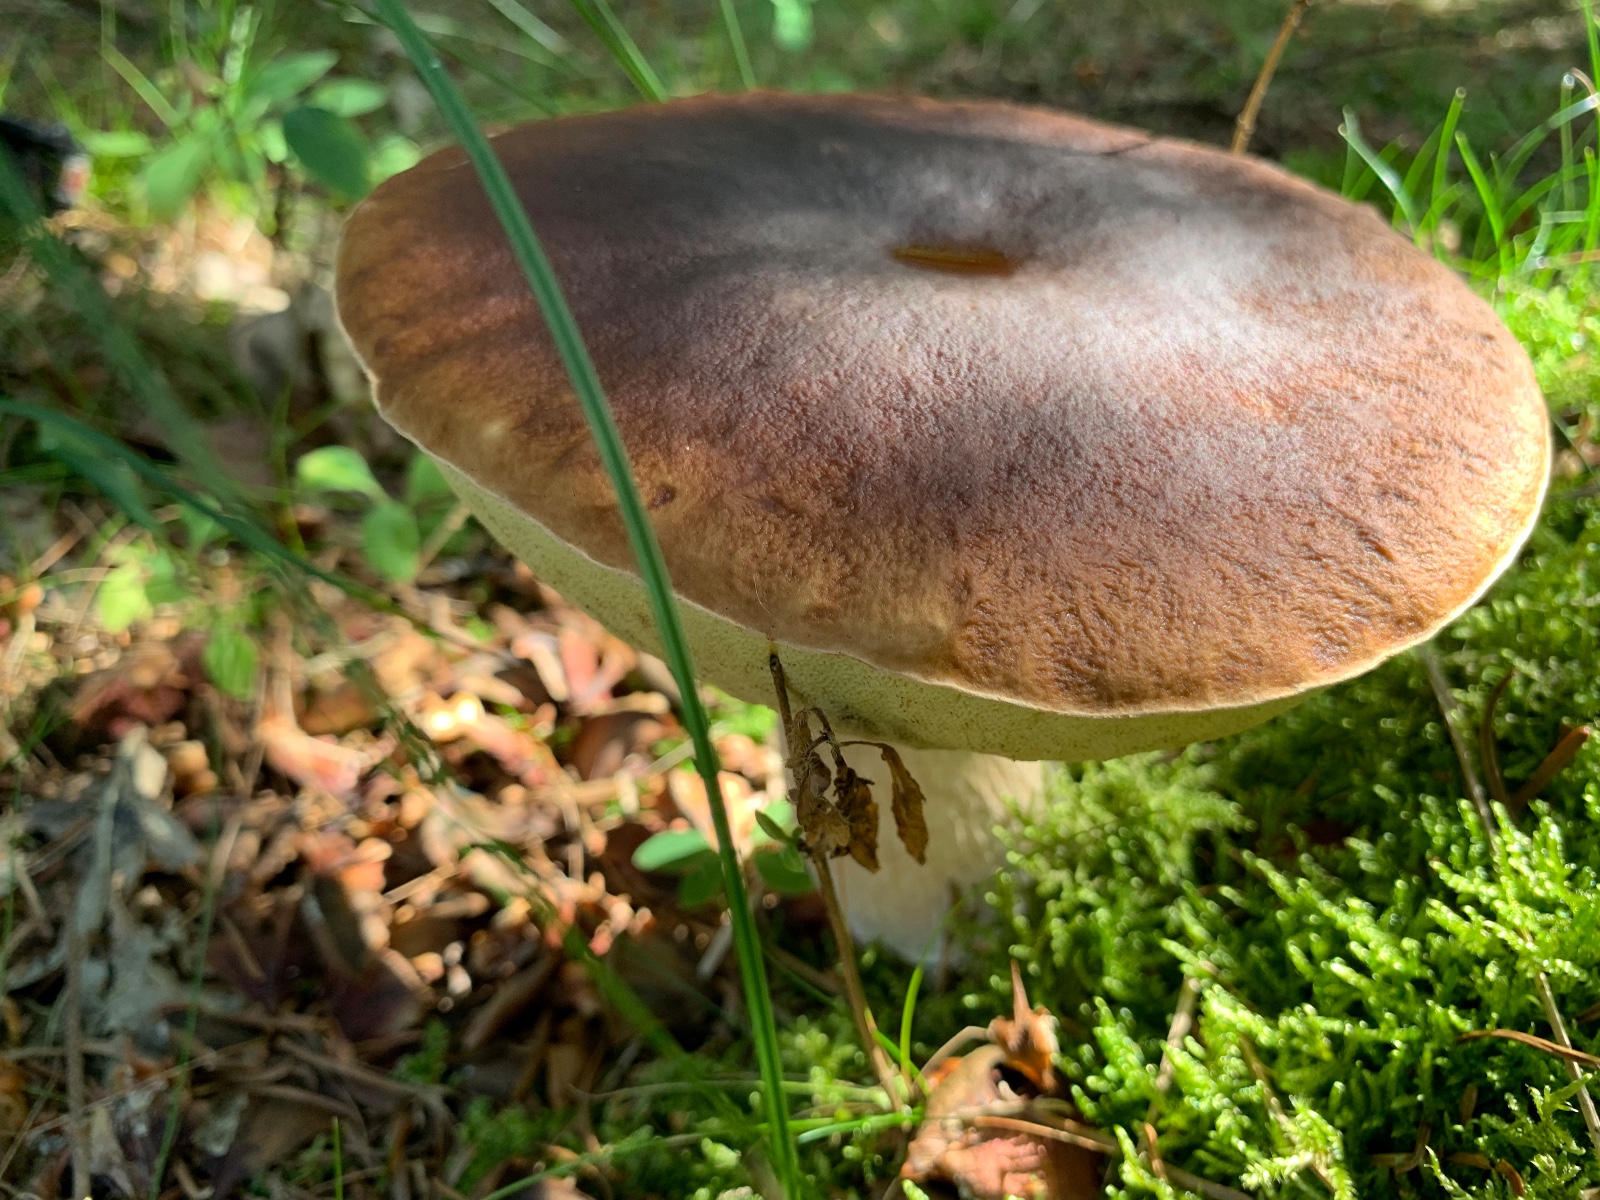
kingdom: Fungi
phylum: Basidiomycota
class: Agaricomycetes
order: Boletales
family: Boletaceae
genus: Boletus
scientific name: Boletus edulis
